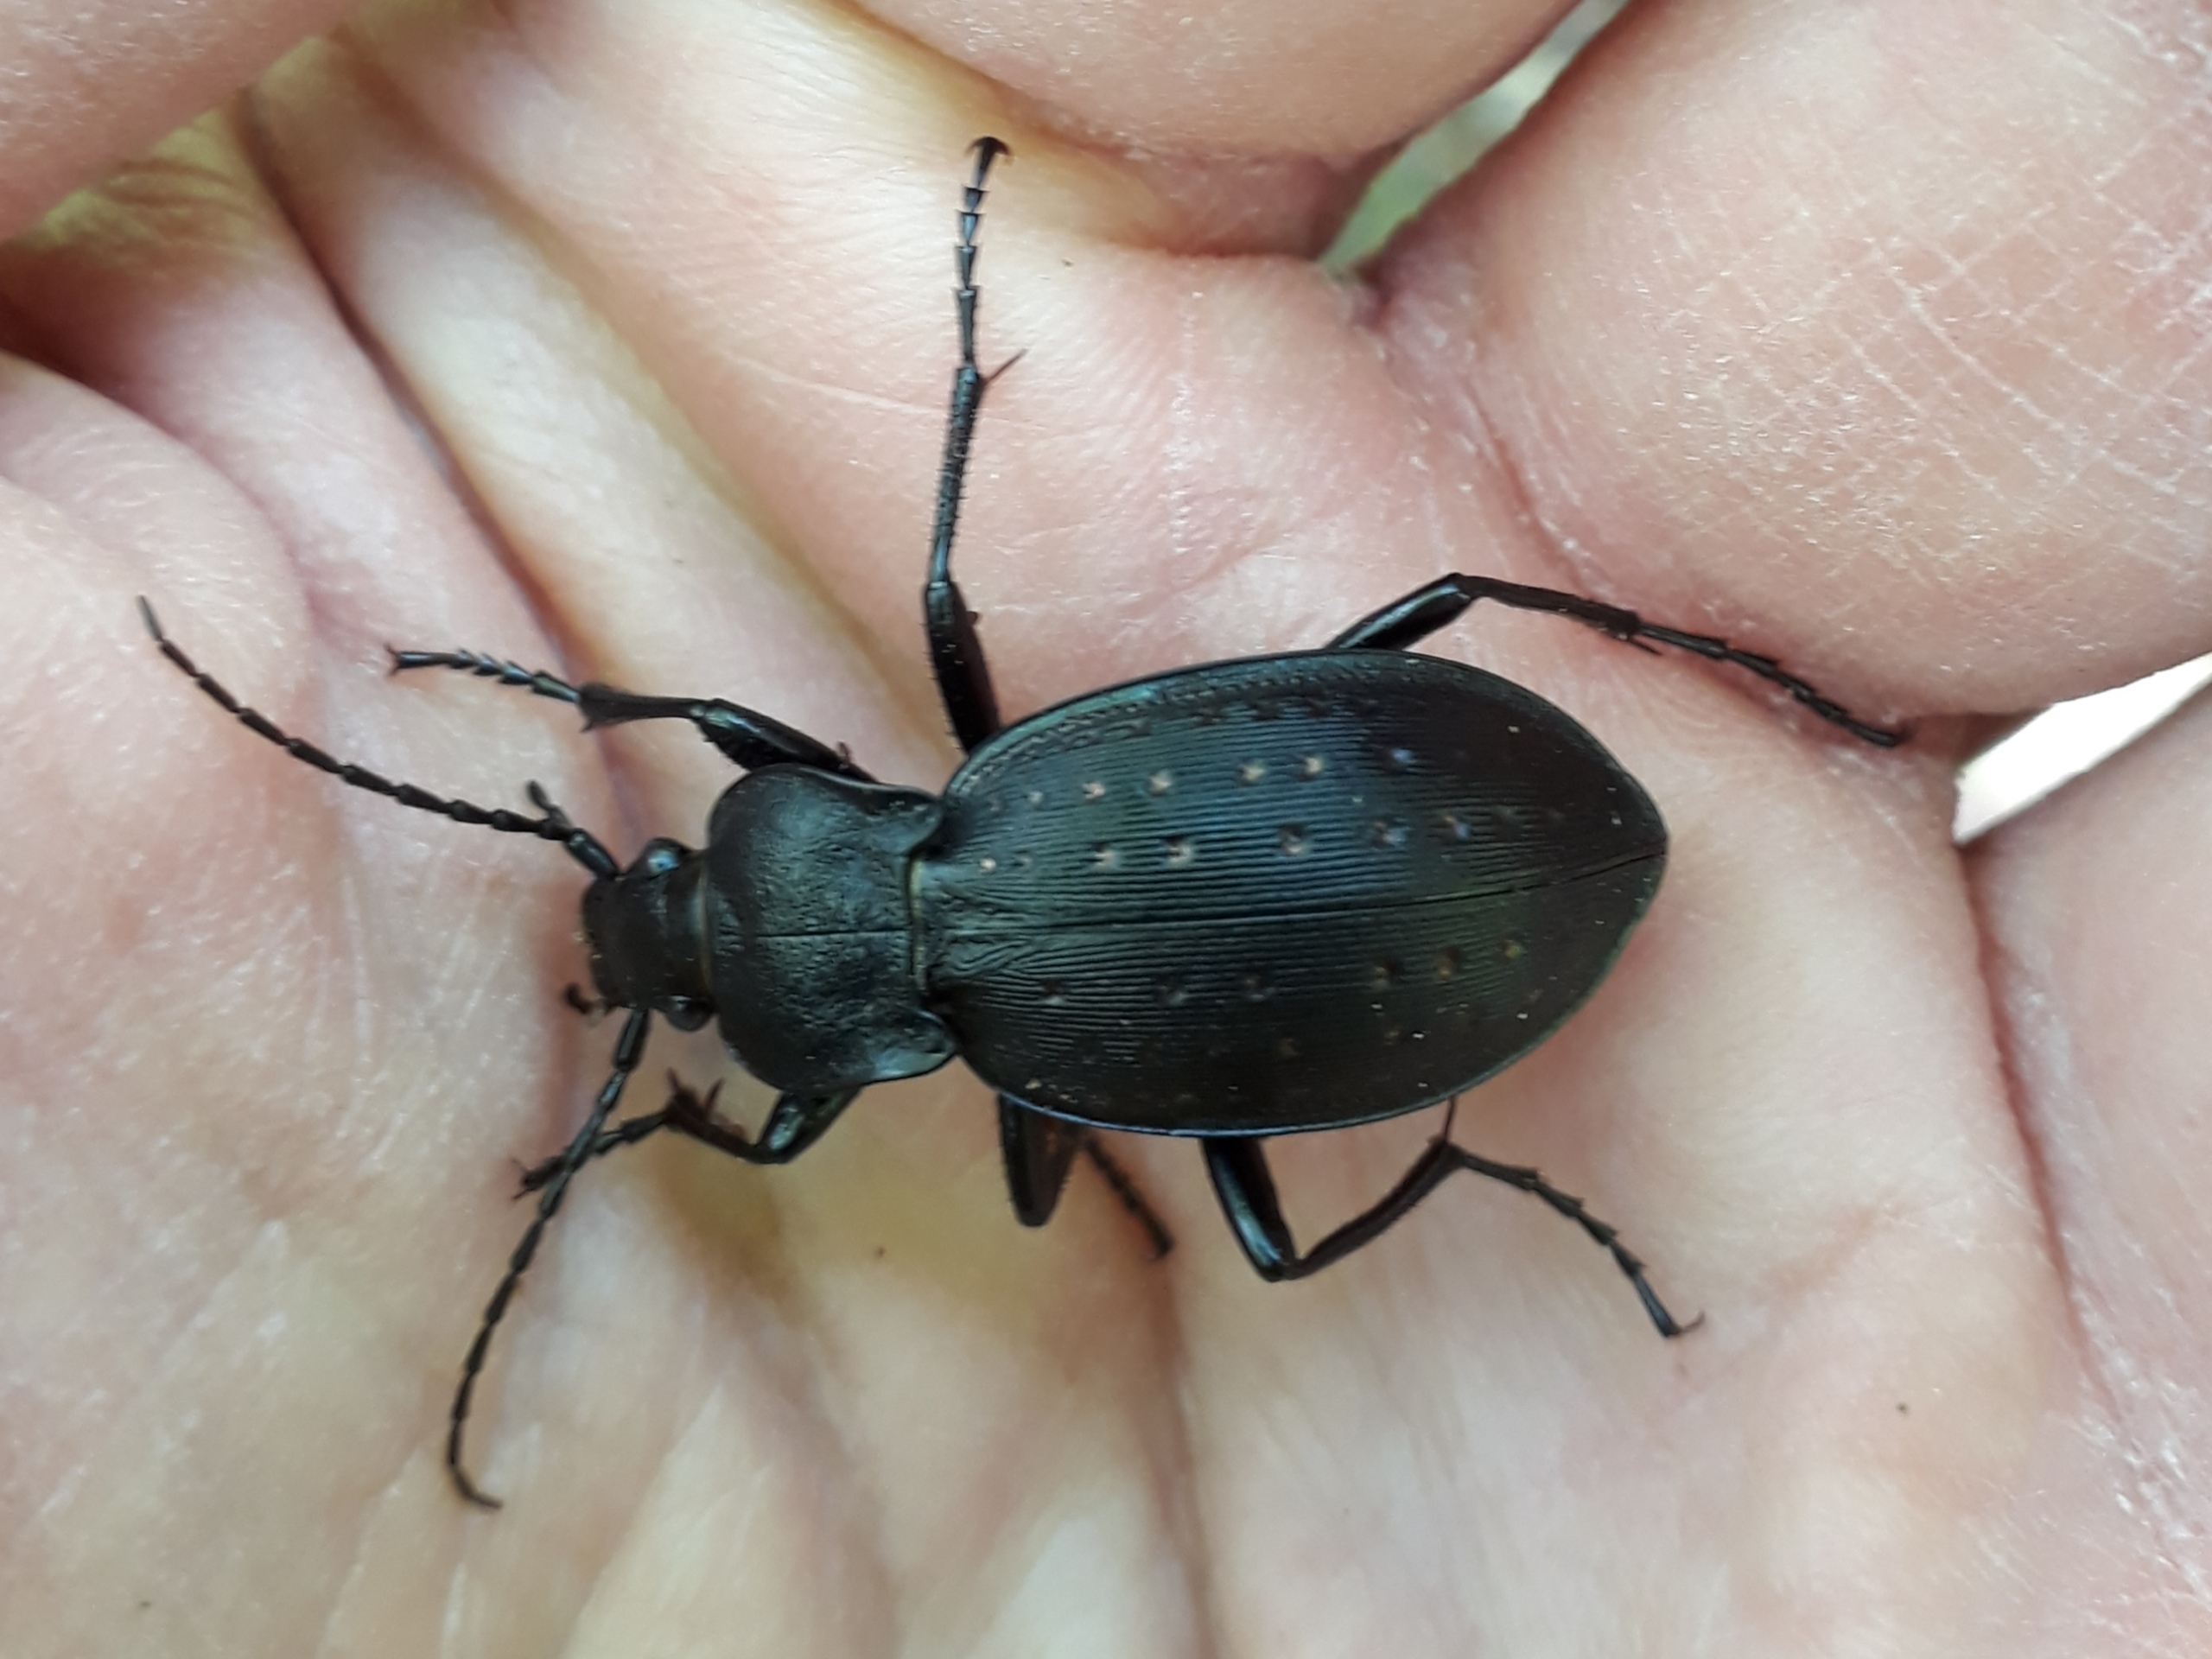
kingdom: Animalia
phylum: Arthropoda
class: Insecta
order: Coleoptera
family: Carabidae
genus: Carabus
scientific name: Carabus hortensis
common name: Guldpletløber
